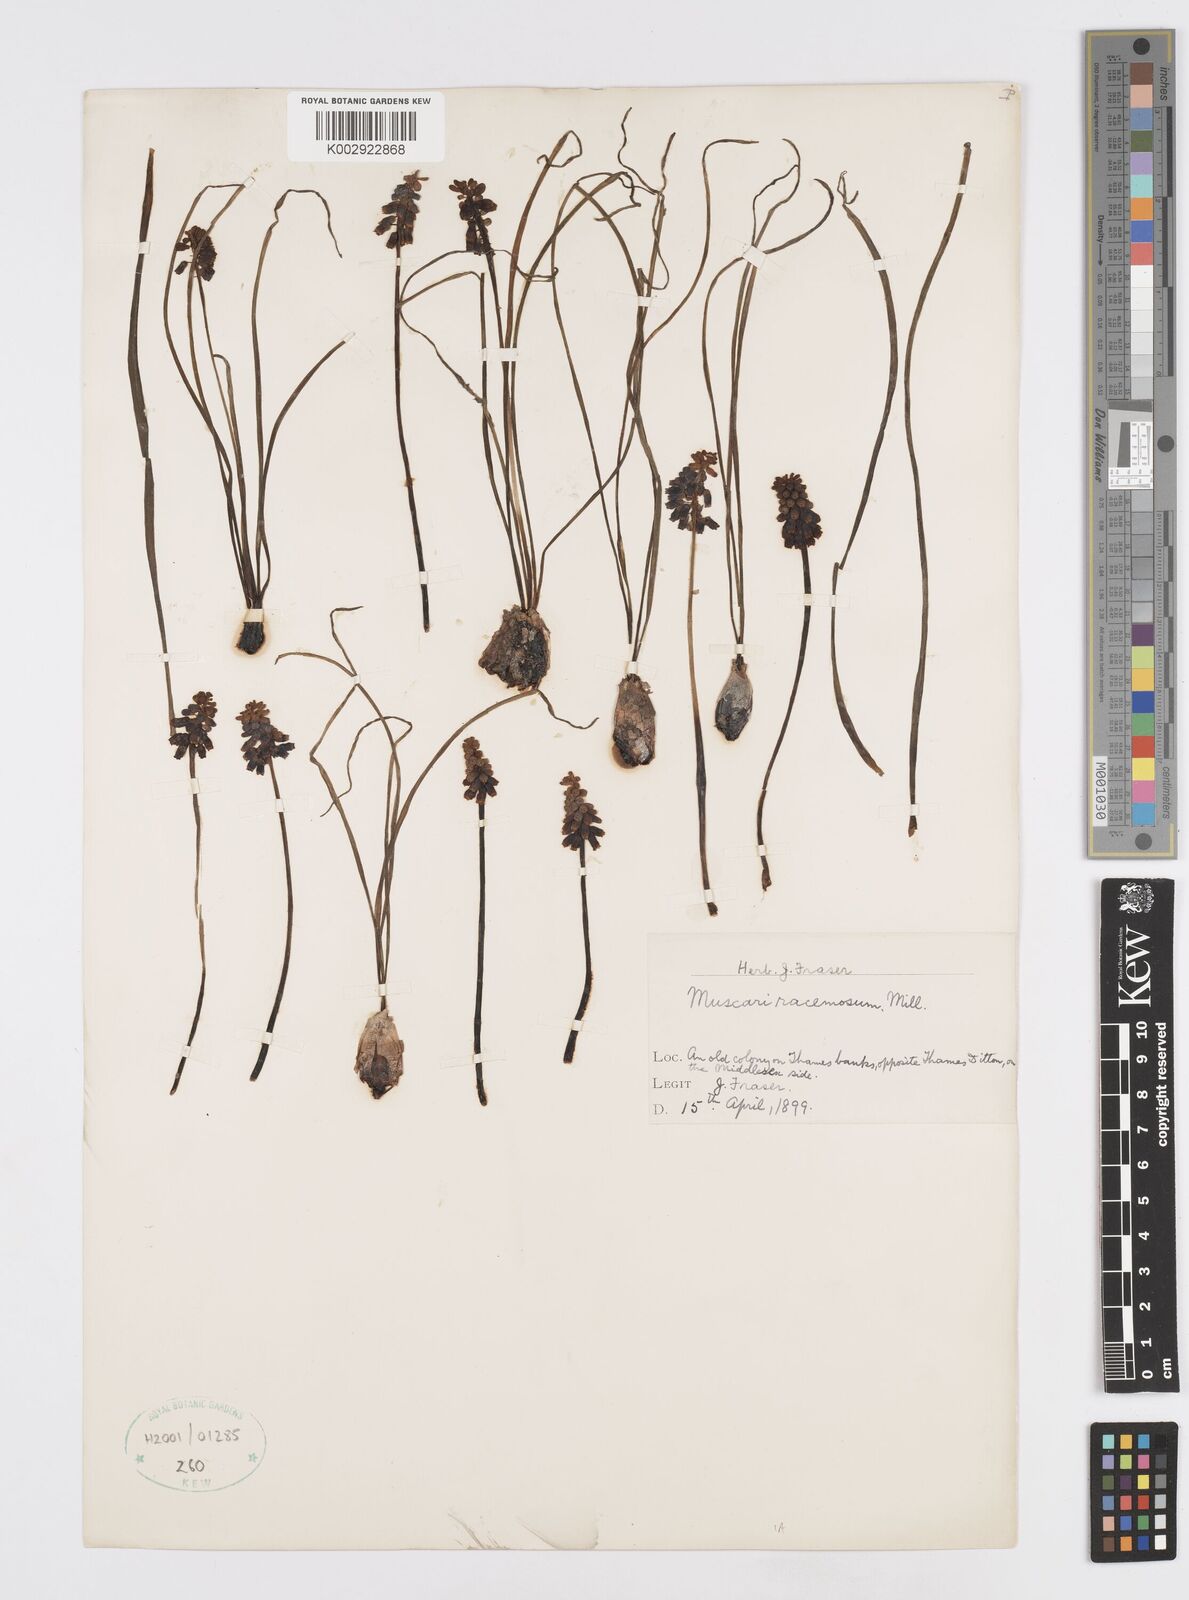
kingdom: Plantae
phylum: Tracheophyta
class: Liliopsida
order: Asparagales
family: Asparagaceae
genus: Muscari
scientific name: Muscari neglectum
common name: Grape-hyacinth
